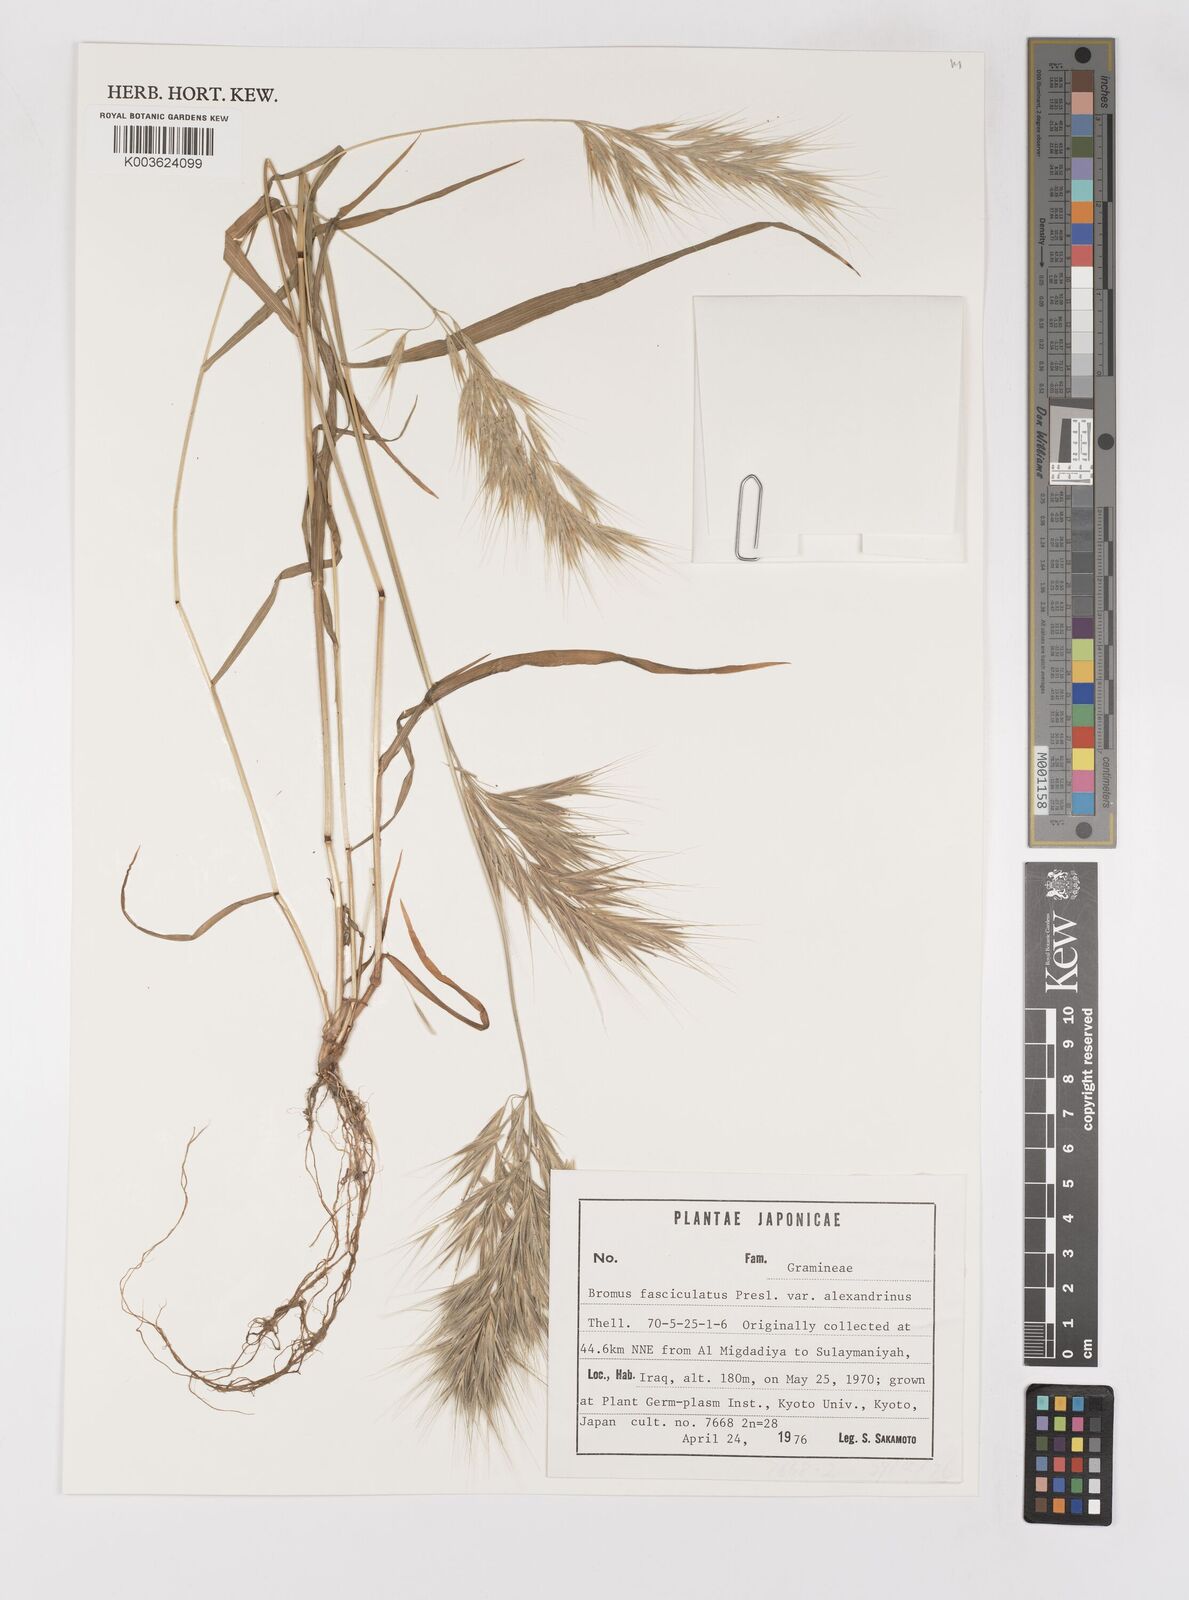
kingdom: Plantae
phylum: Tracheophyta
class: Liliopsida
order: Poales
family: Poaceae
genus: Bromus
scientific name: Bromus fasciculatus
